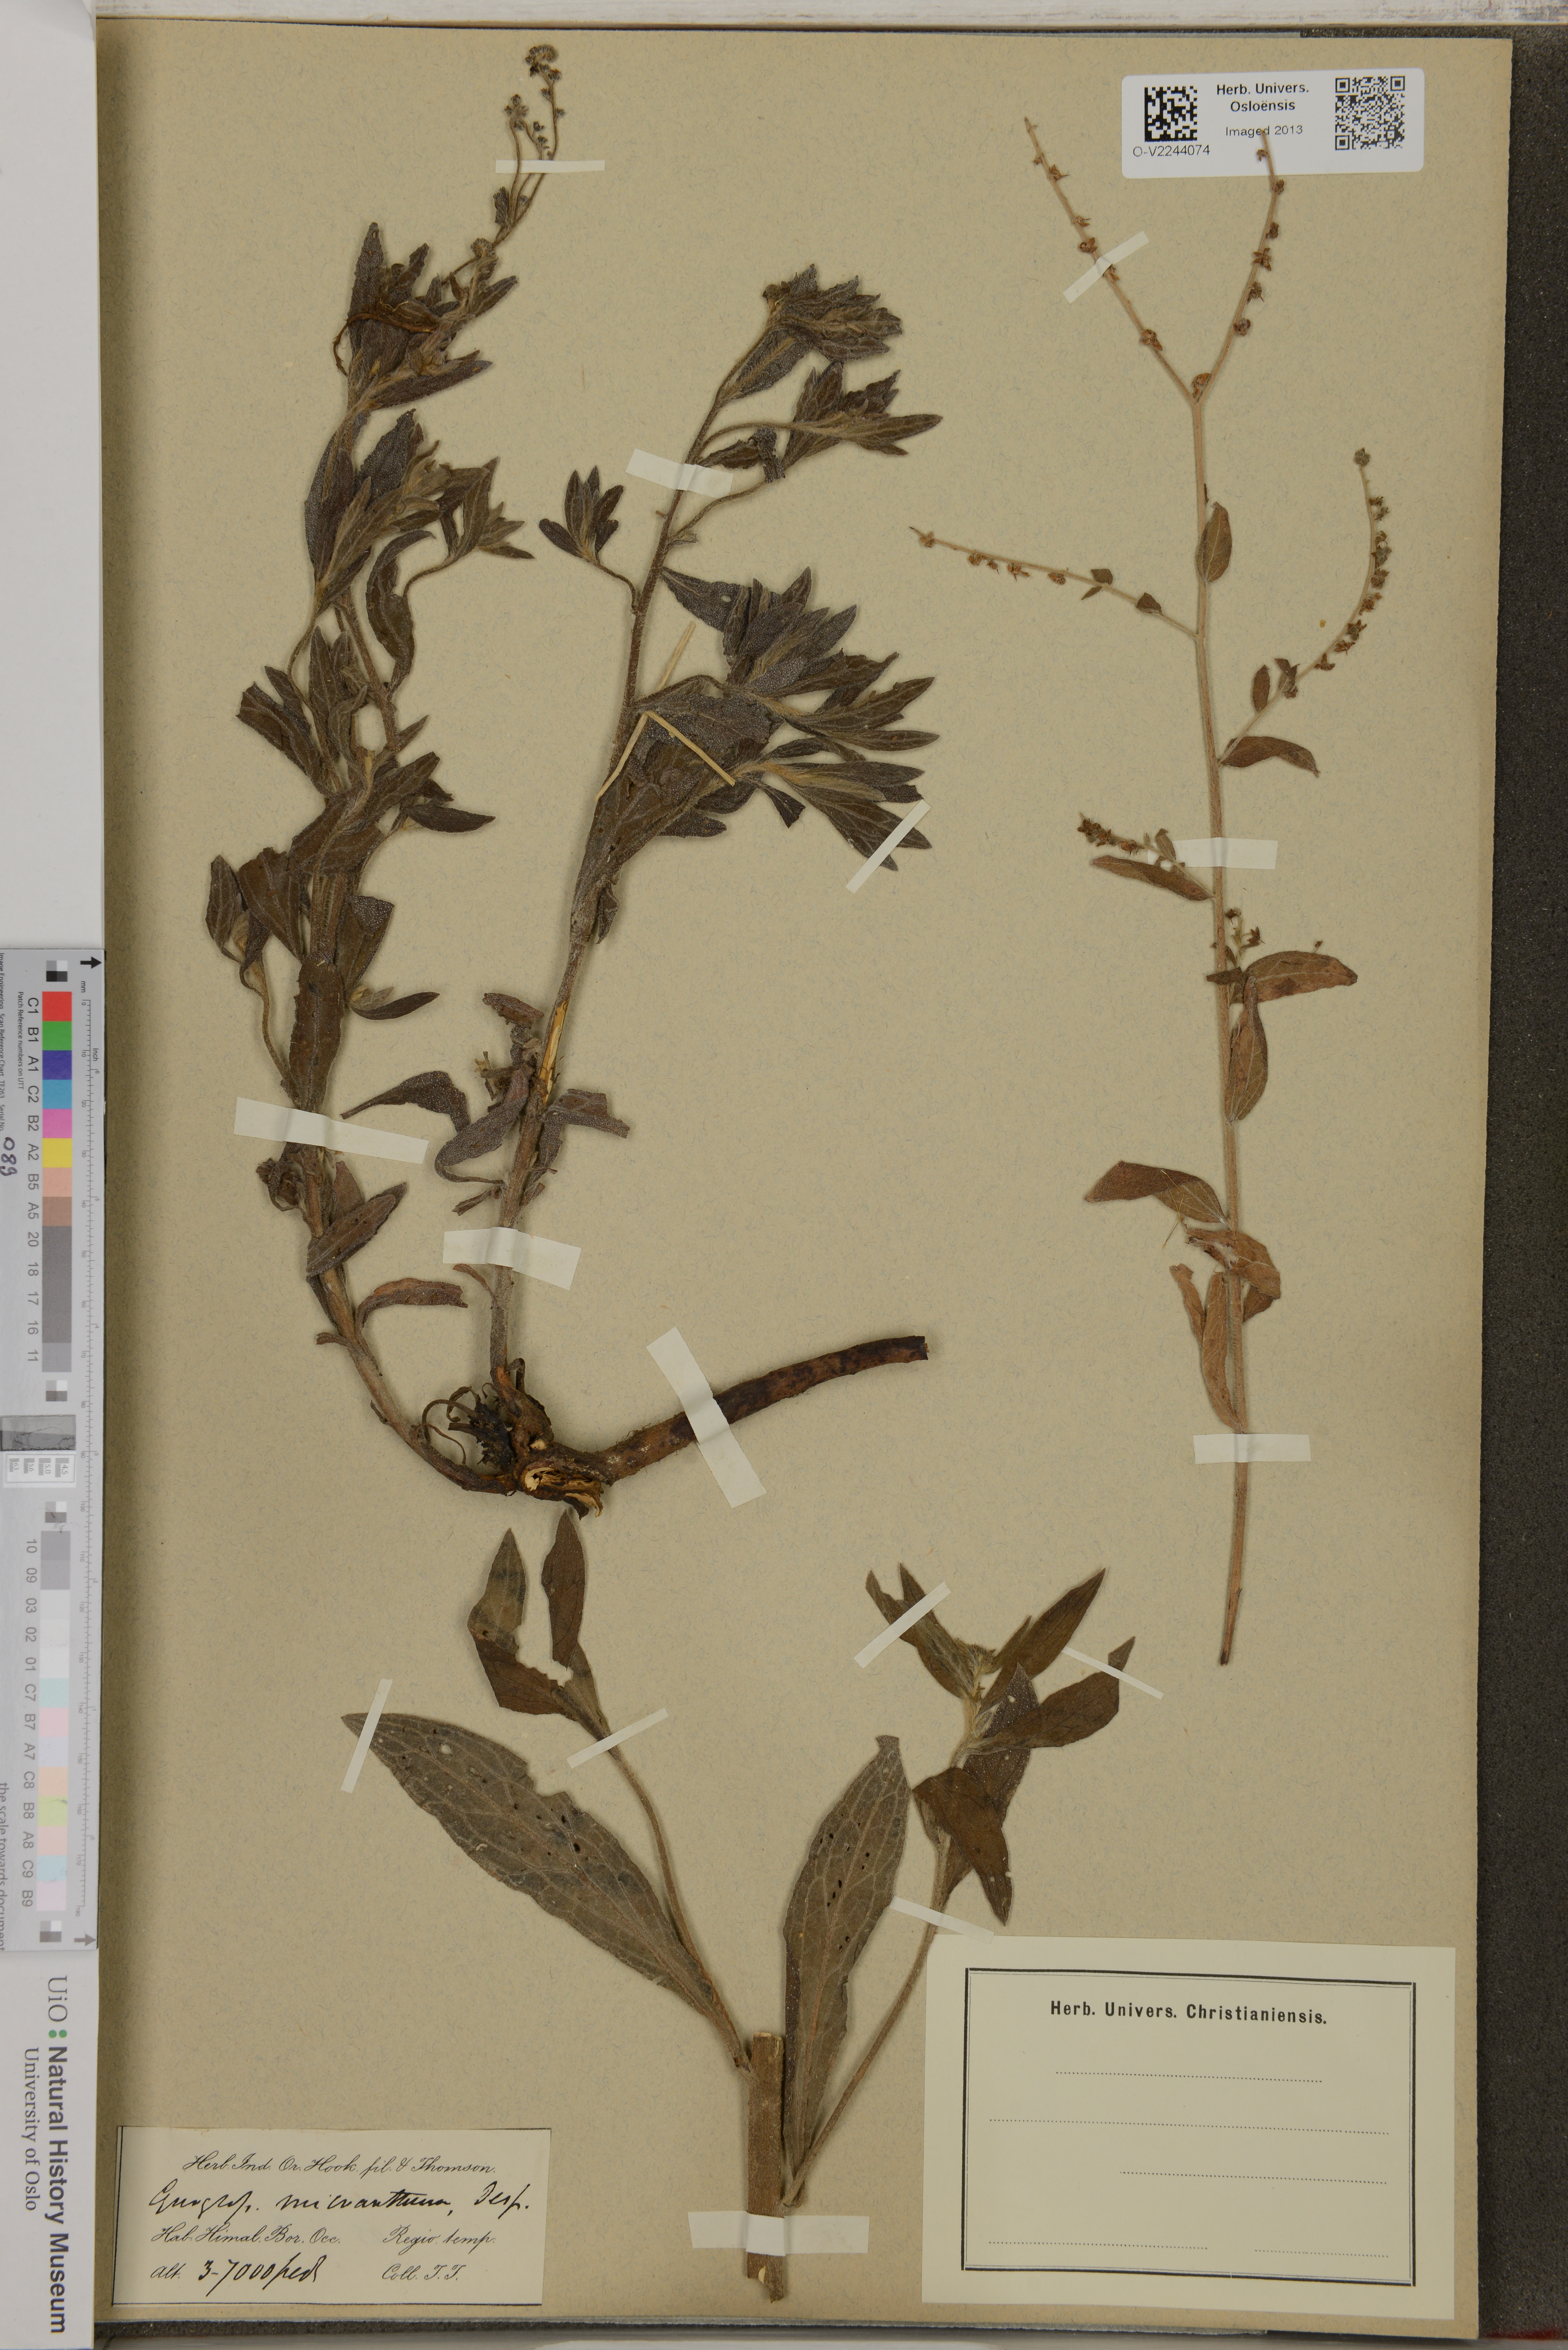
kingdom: Plantae
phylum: Tracheophyta
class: Magnoliopsida
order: Boraginales
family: Boraginaceae
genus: Cynoglossum
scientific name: Cynoglossum micranthum
